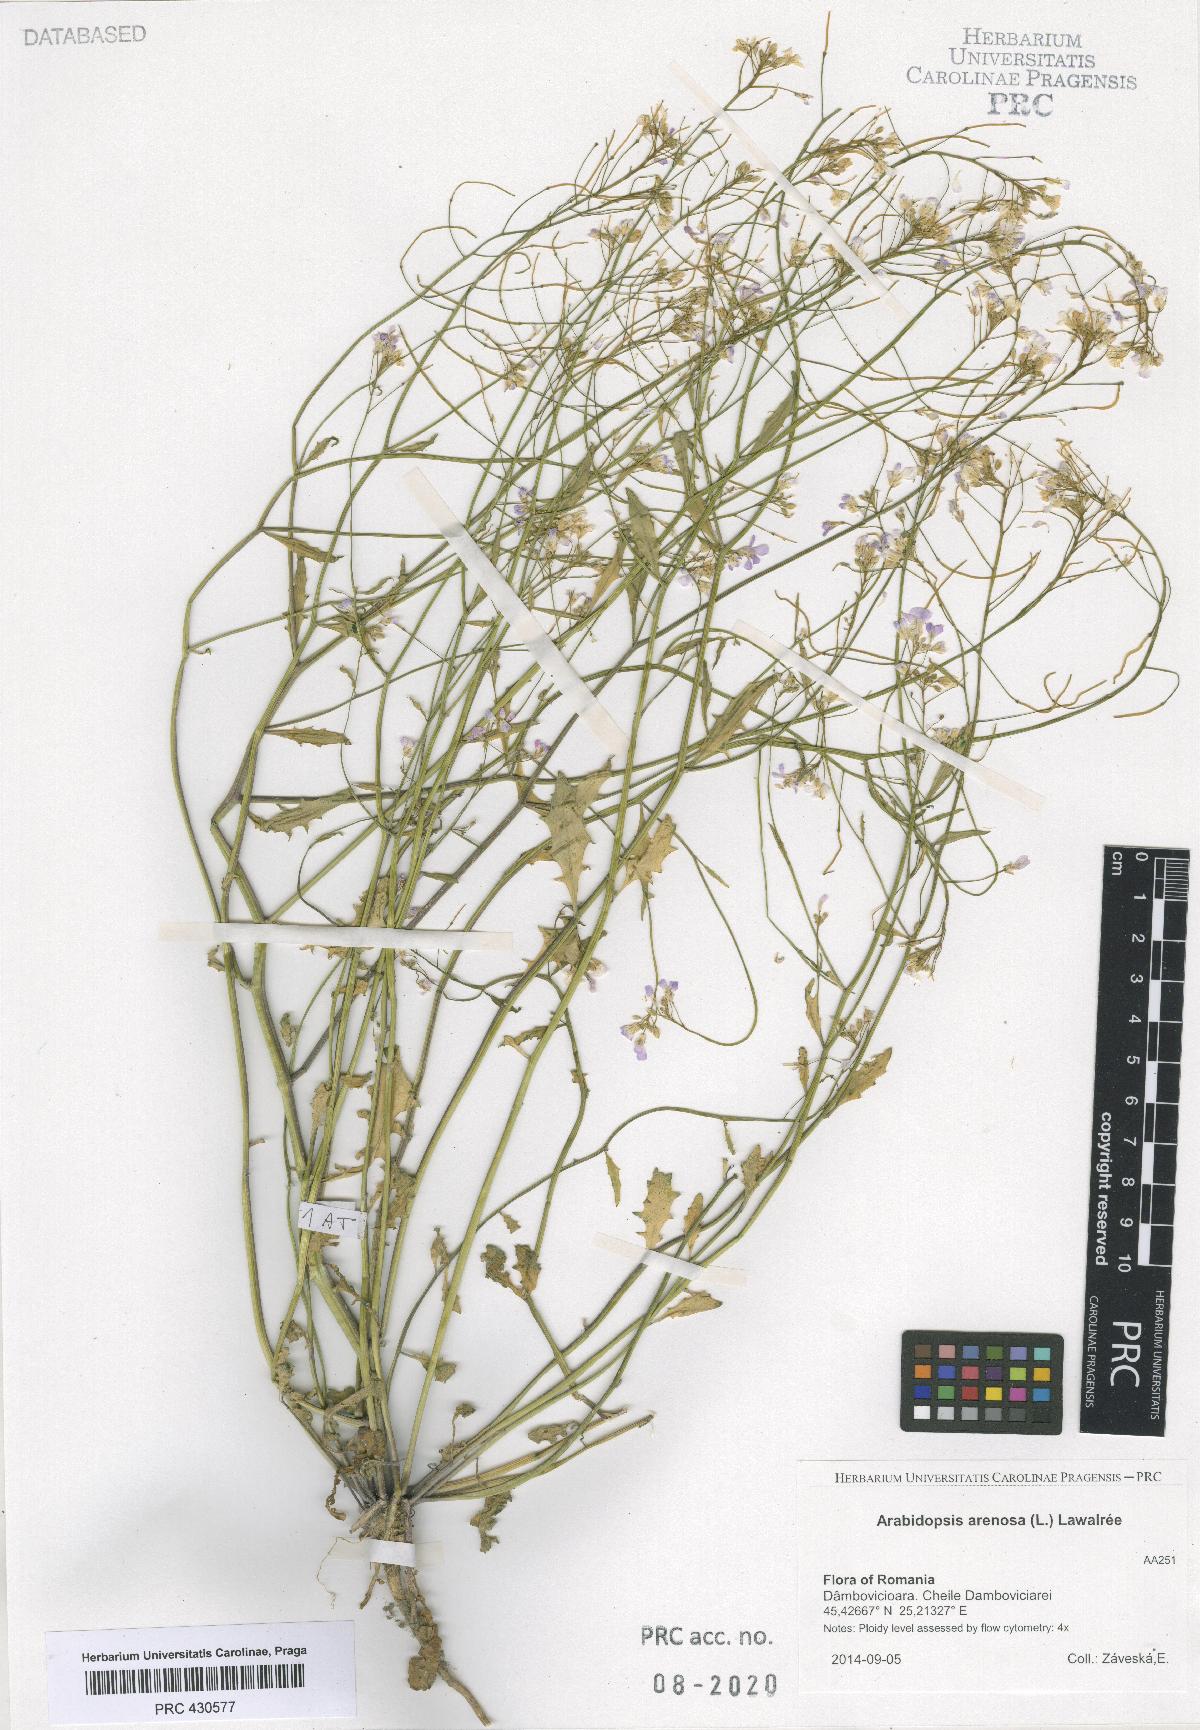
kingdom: Plantae
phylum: Tracheophyta
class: Magnoliopsida
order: Brassicales
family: Brassicaceae
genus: Arabidopsis
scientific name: Arabidopsis arenosa
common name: Sand rock-cress
